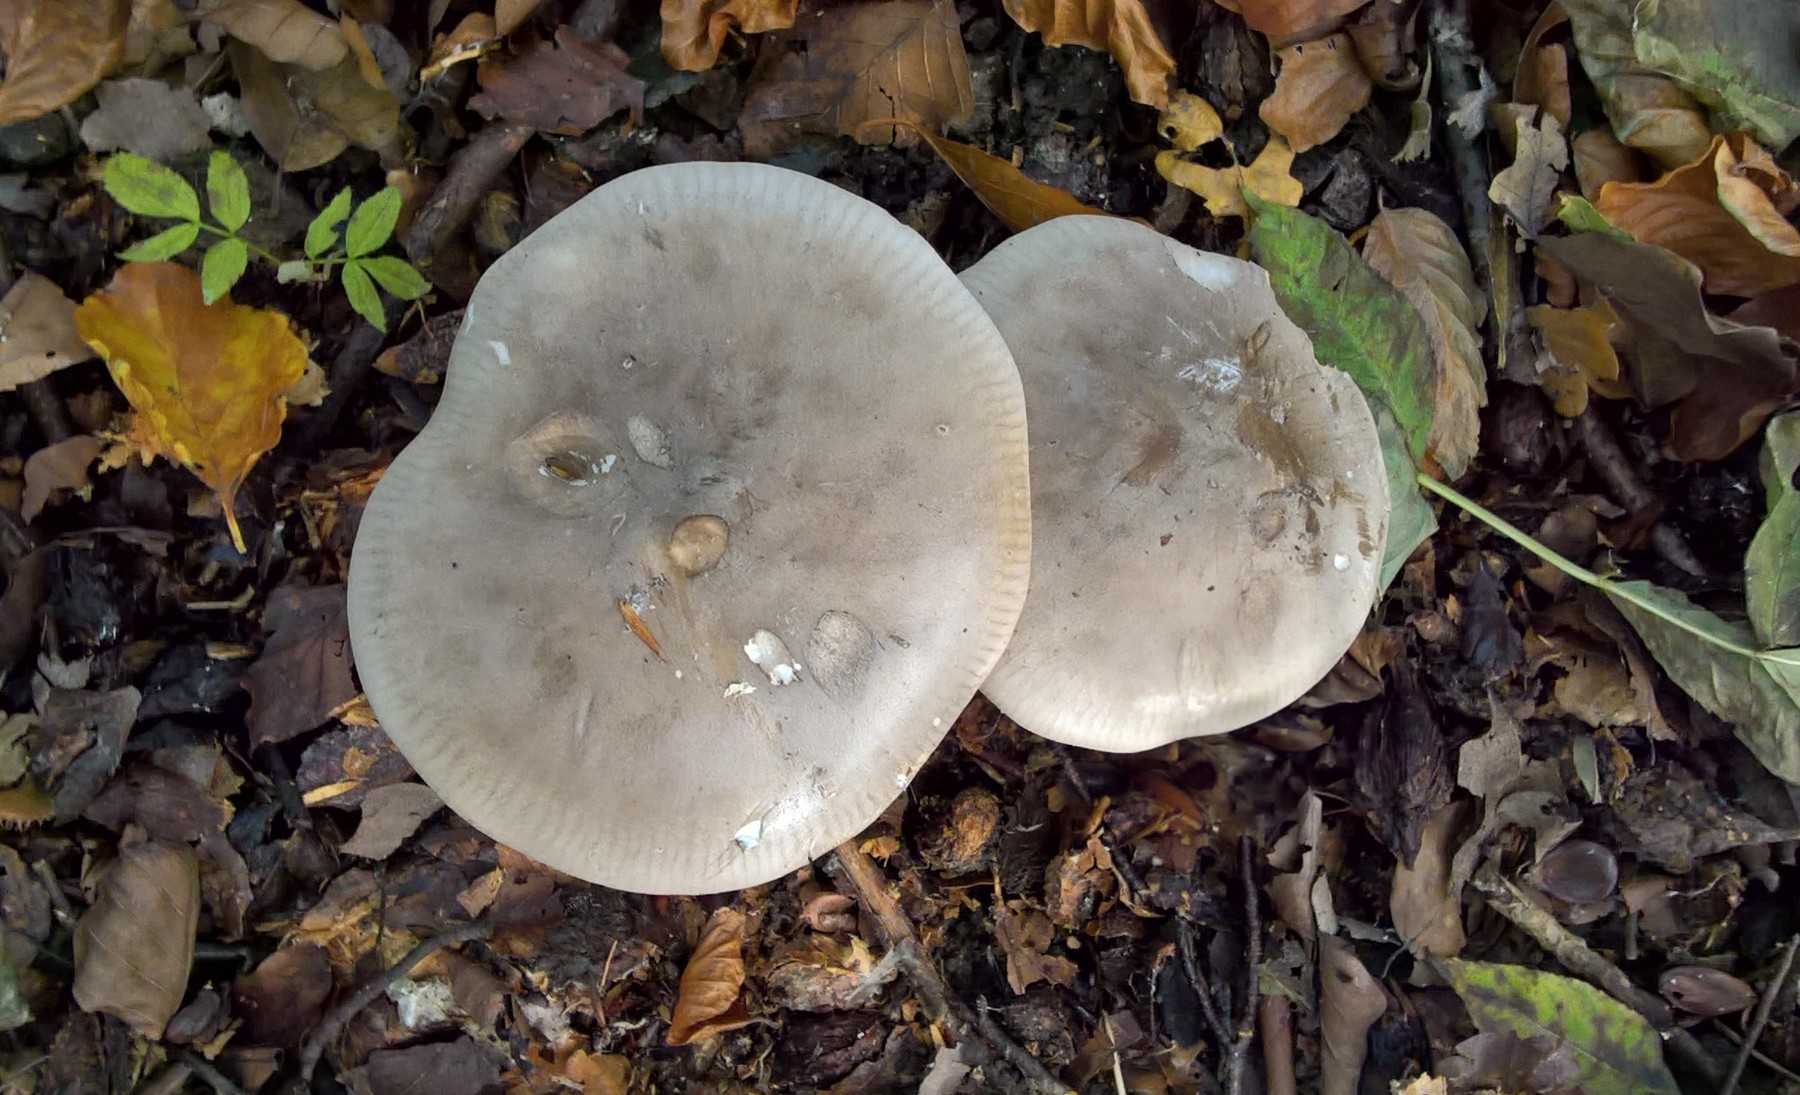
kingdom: Fungi
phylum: Basidiomycota
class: Agaricomycetes
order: Agaricales
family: Tricholomataceae
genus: Clitocybe
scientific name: Clitocybe nebularis
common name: tåge-tragthat
